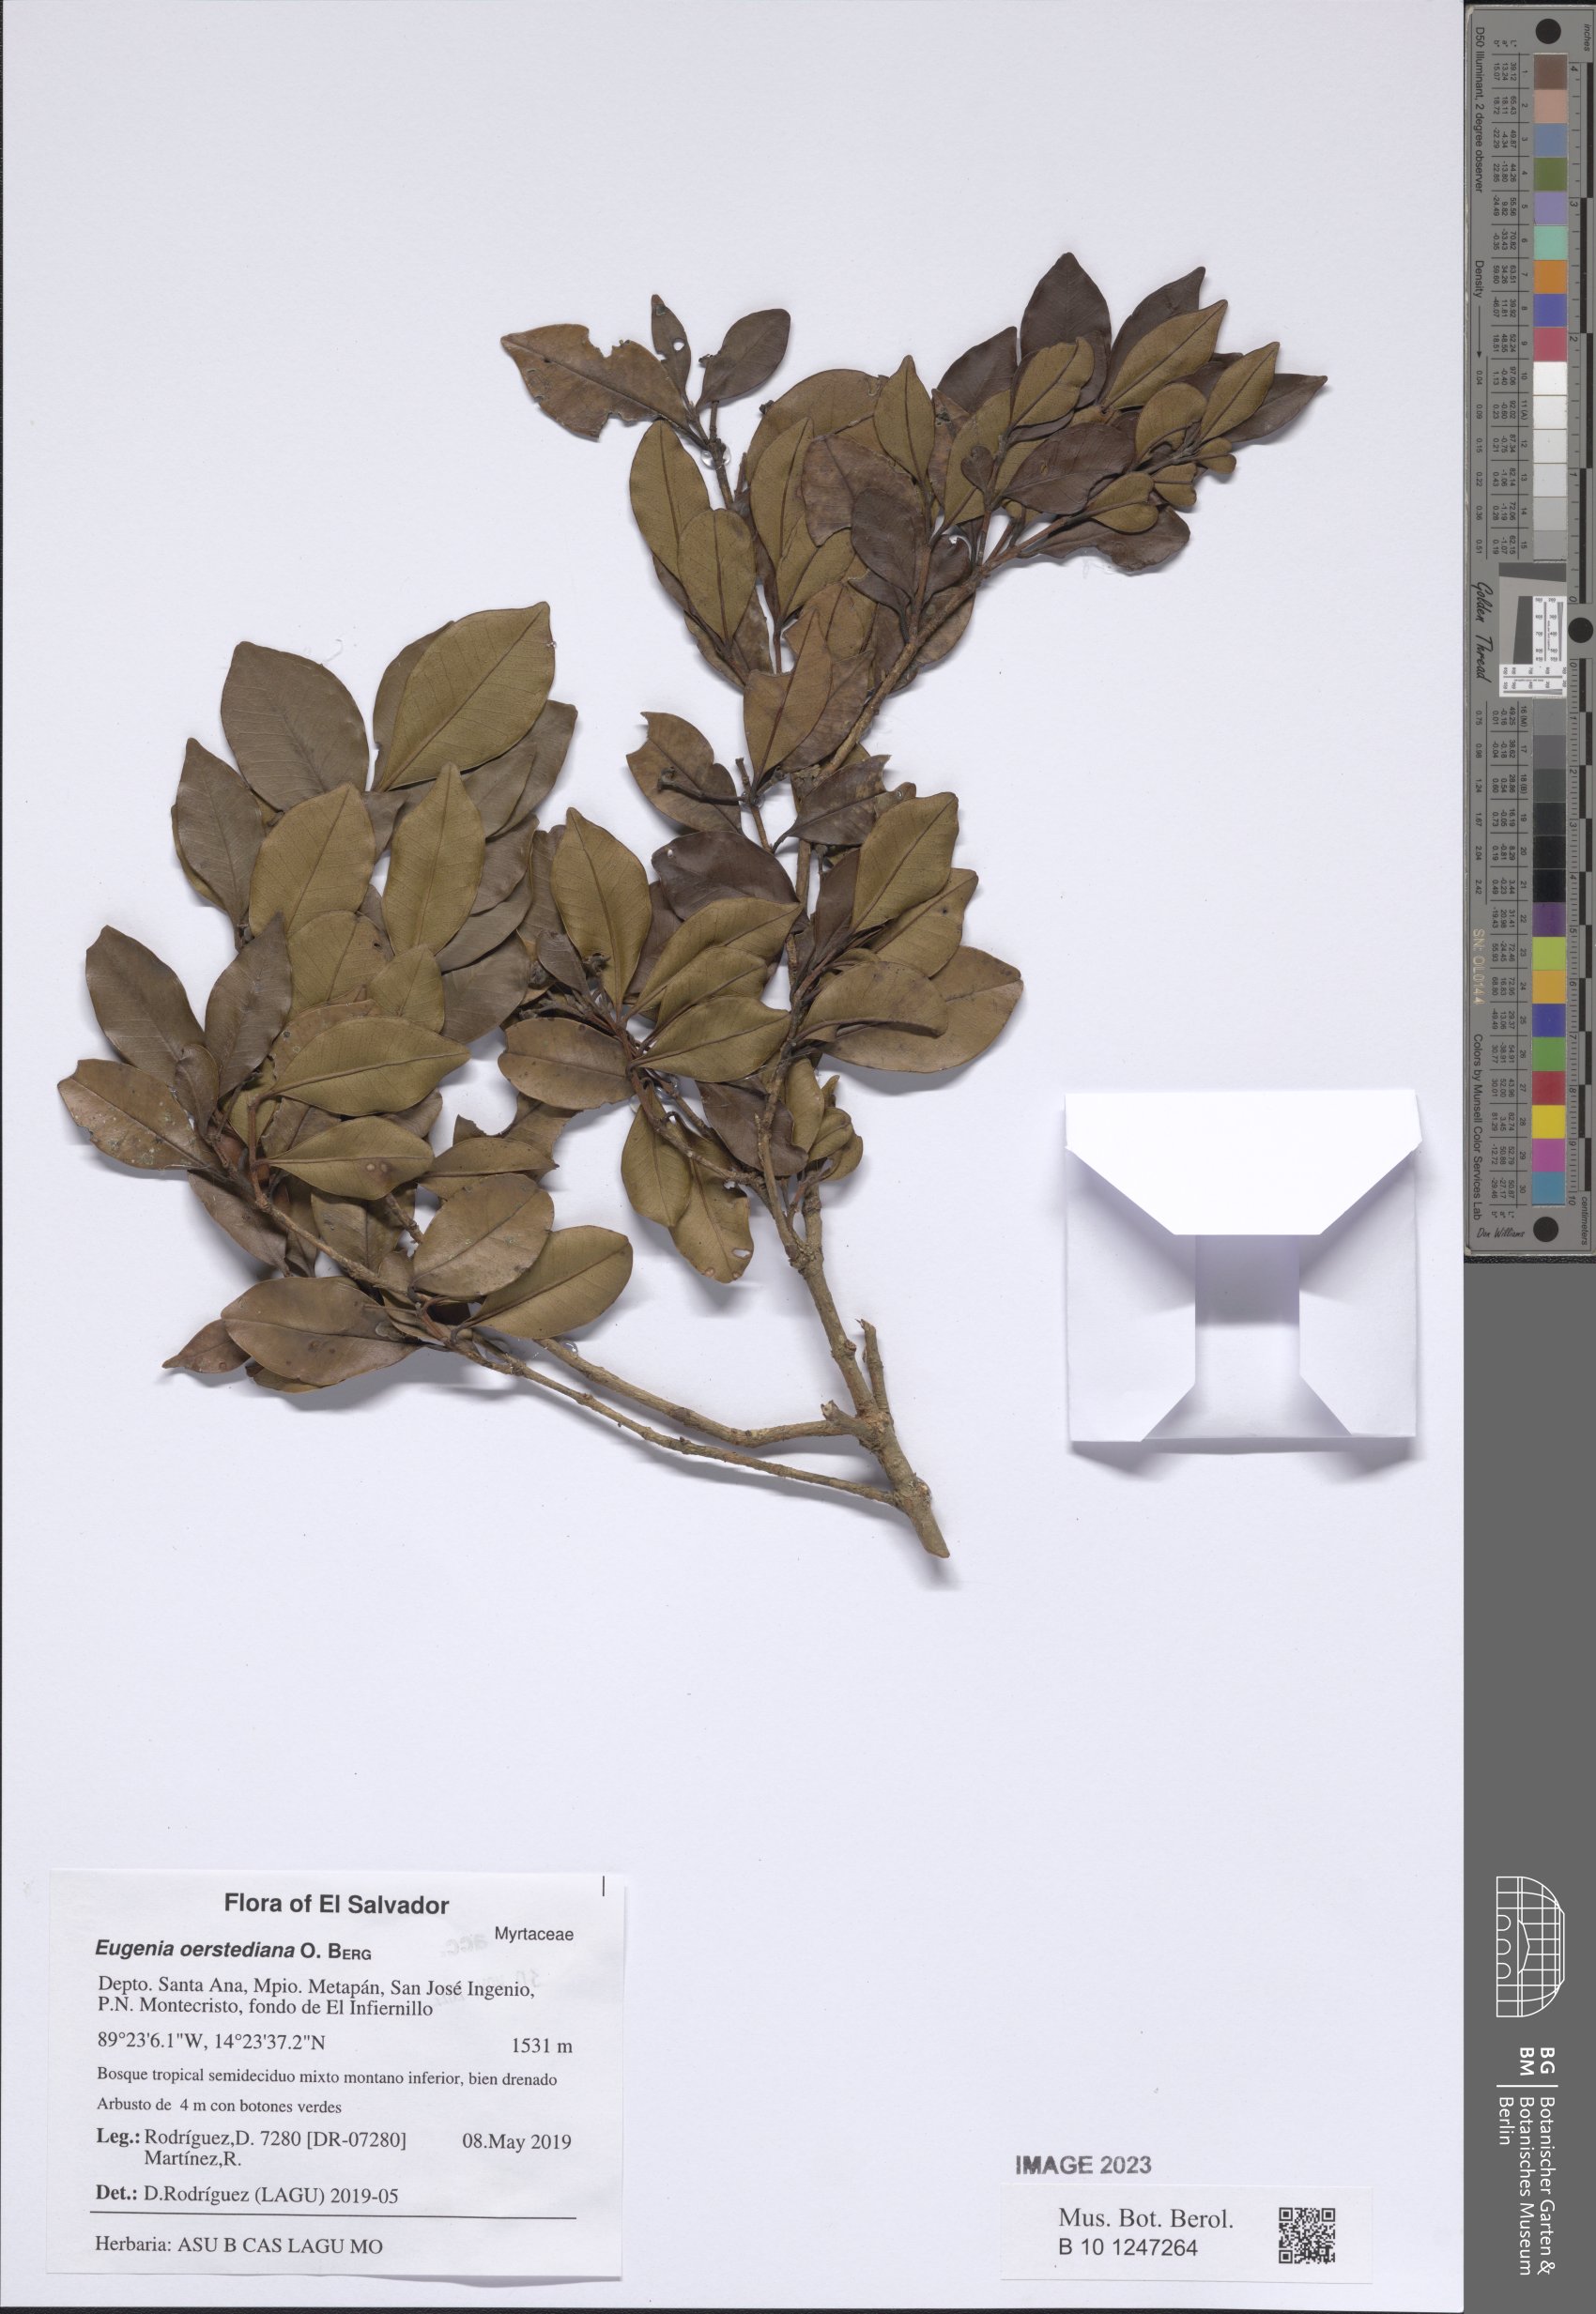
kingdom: Plantae
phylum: Tracheophyta
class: Magnoliopsida
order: Myrtales
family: Myrtaceae
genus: Eugenia
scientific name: Eugenia oerstediana
